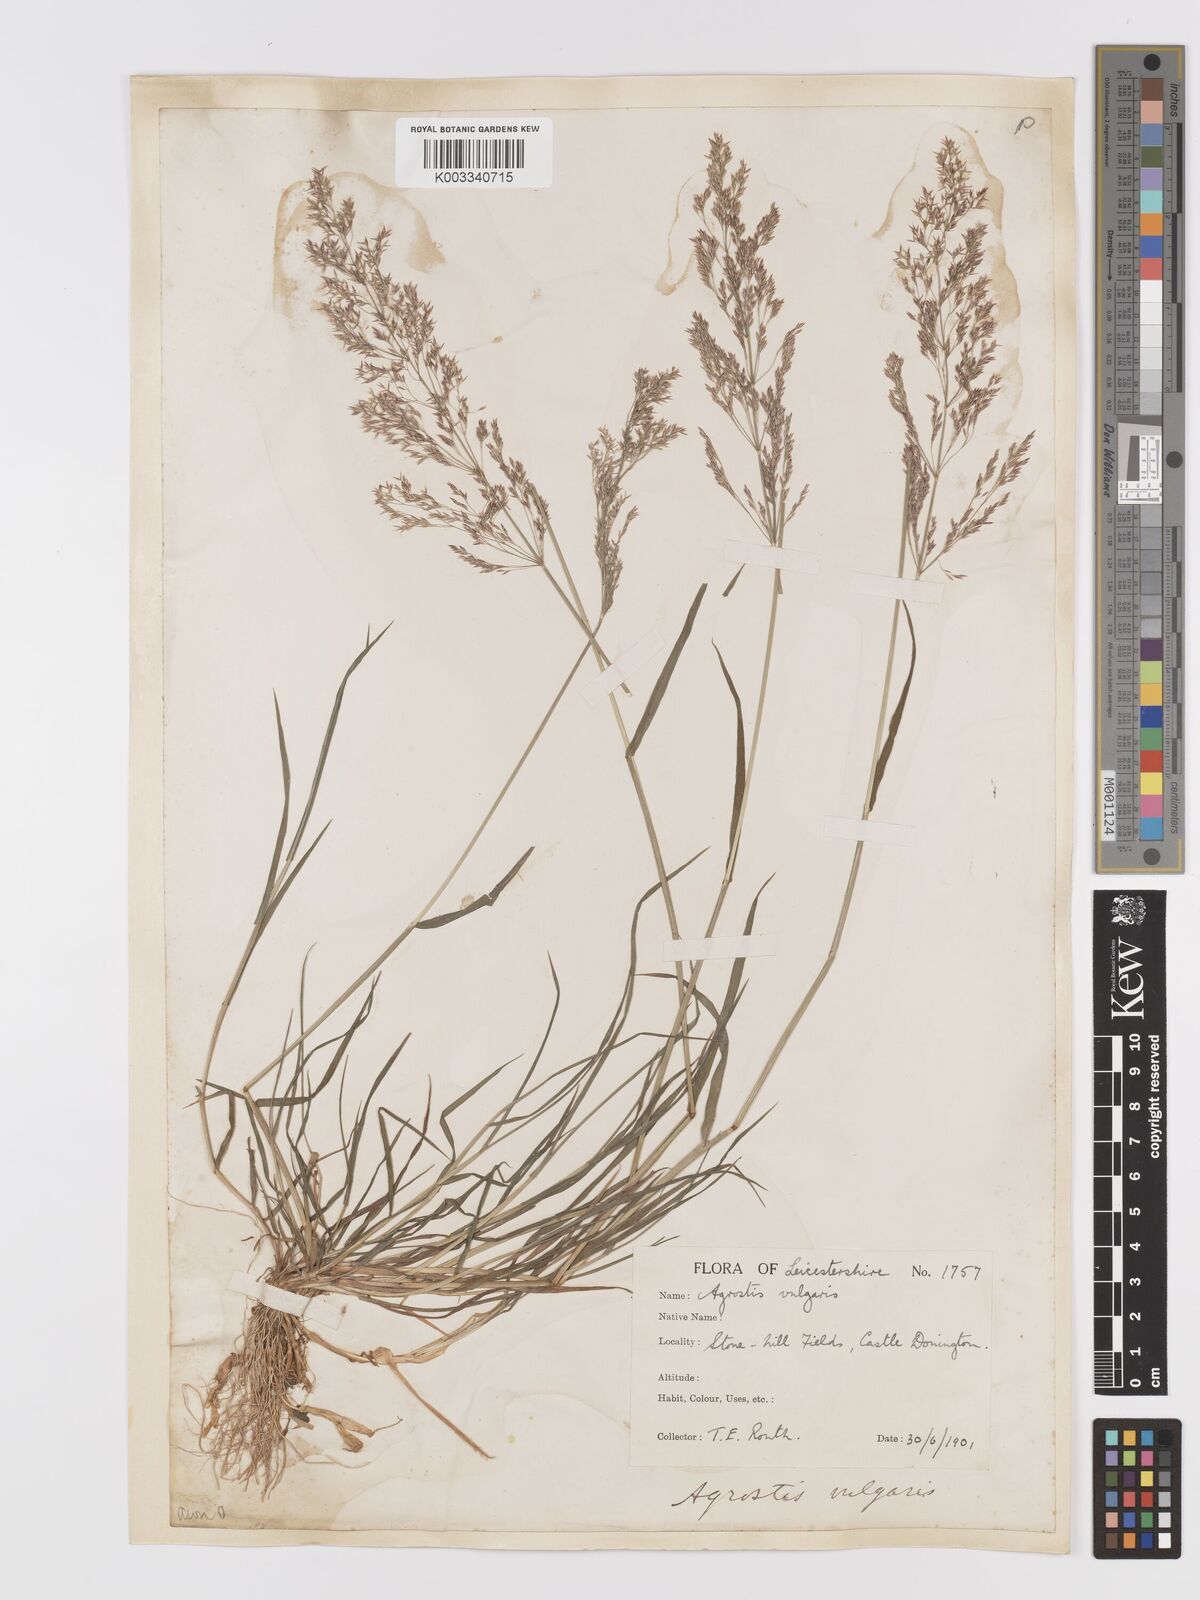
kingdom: Plantae
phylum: Tracheophyta
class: Liliopsida
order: Poales
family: Poaceae
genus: Agrostis
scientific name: Agrostis capillaris
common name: Colonial bentgrass
